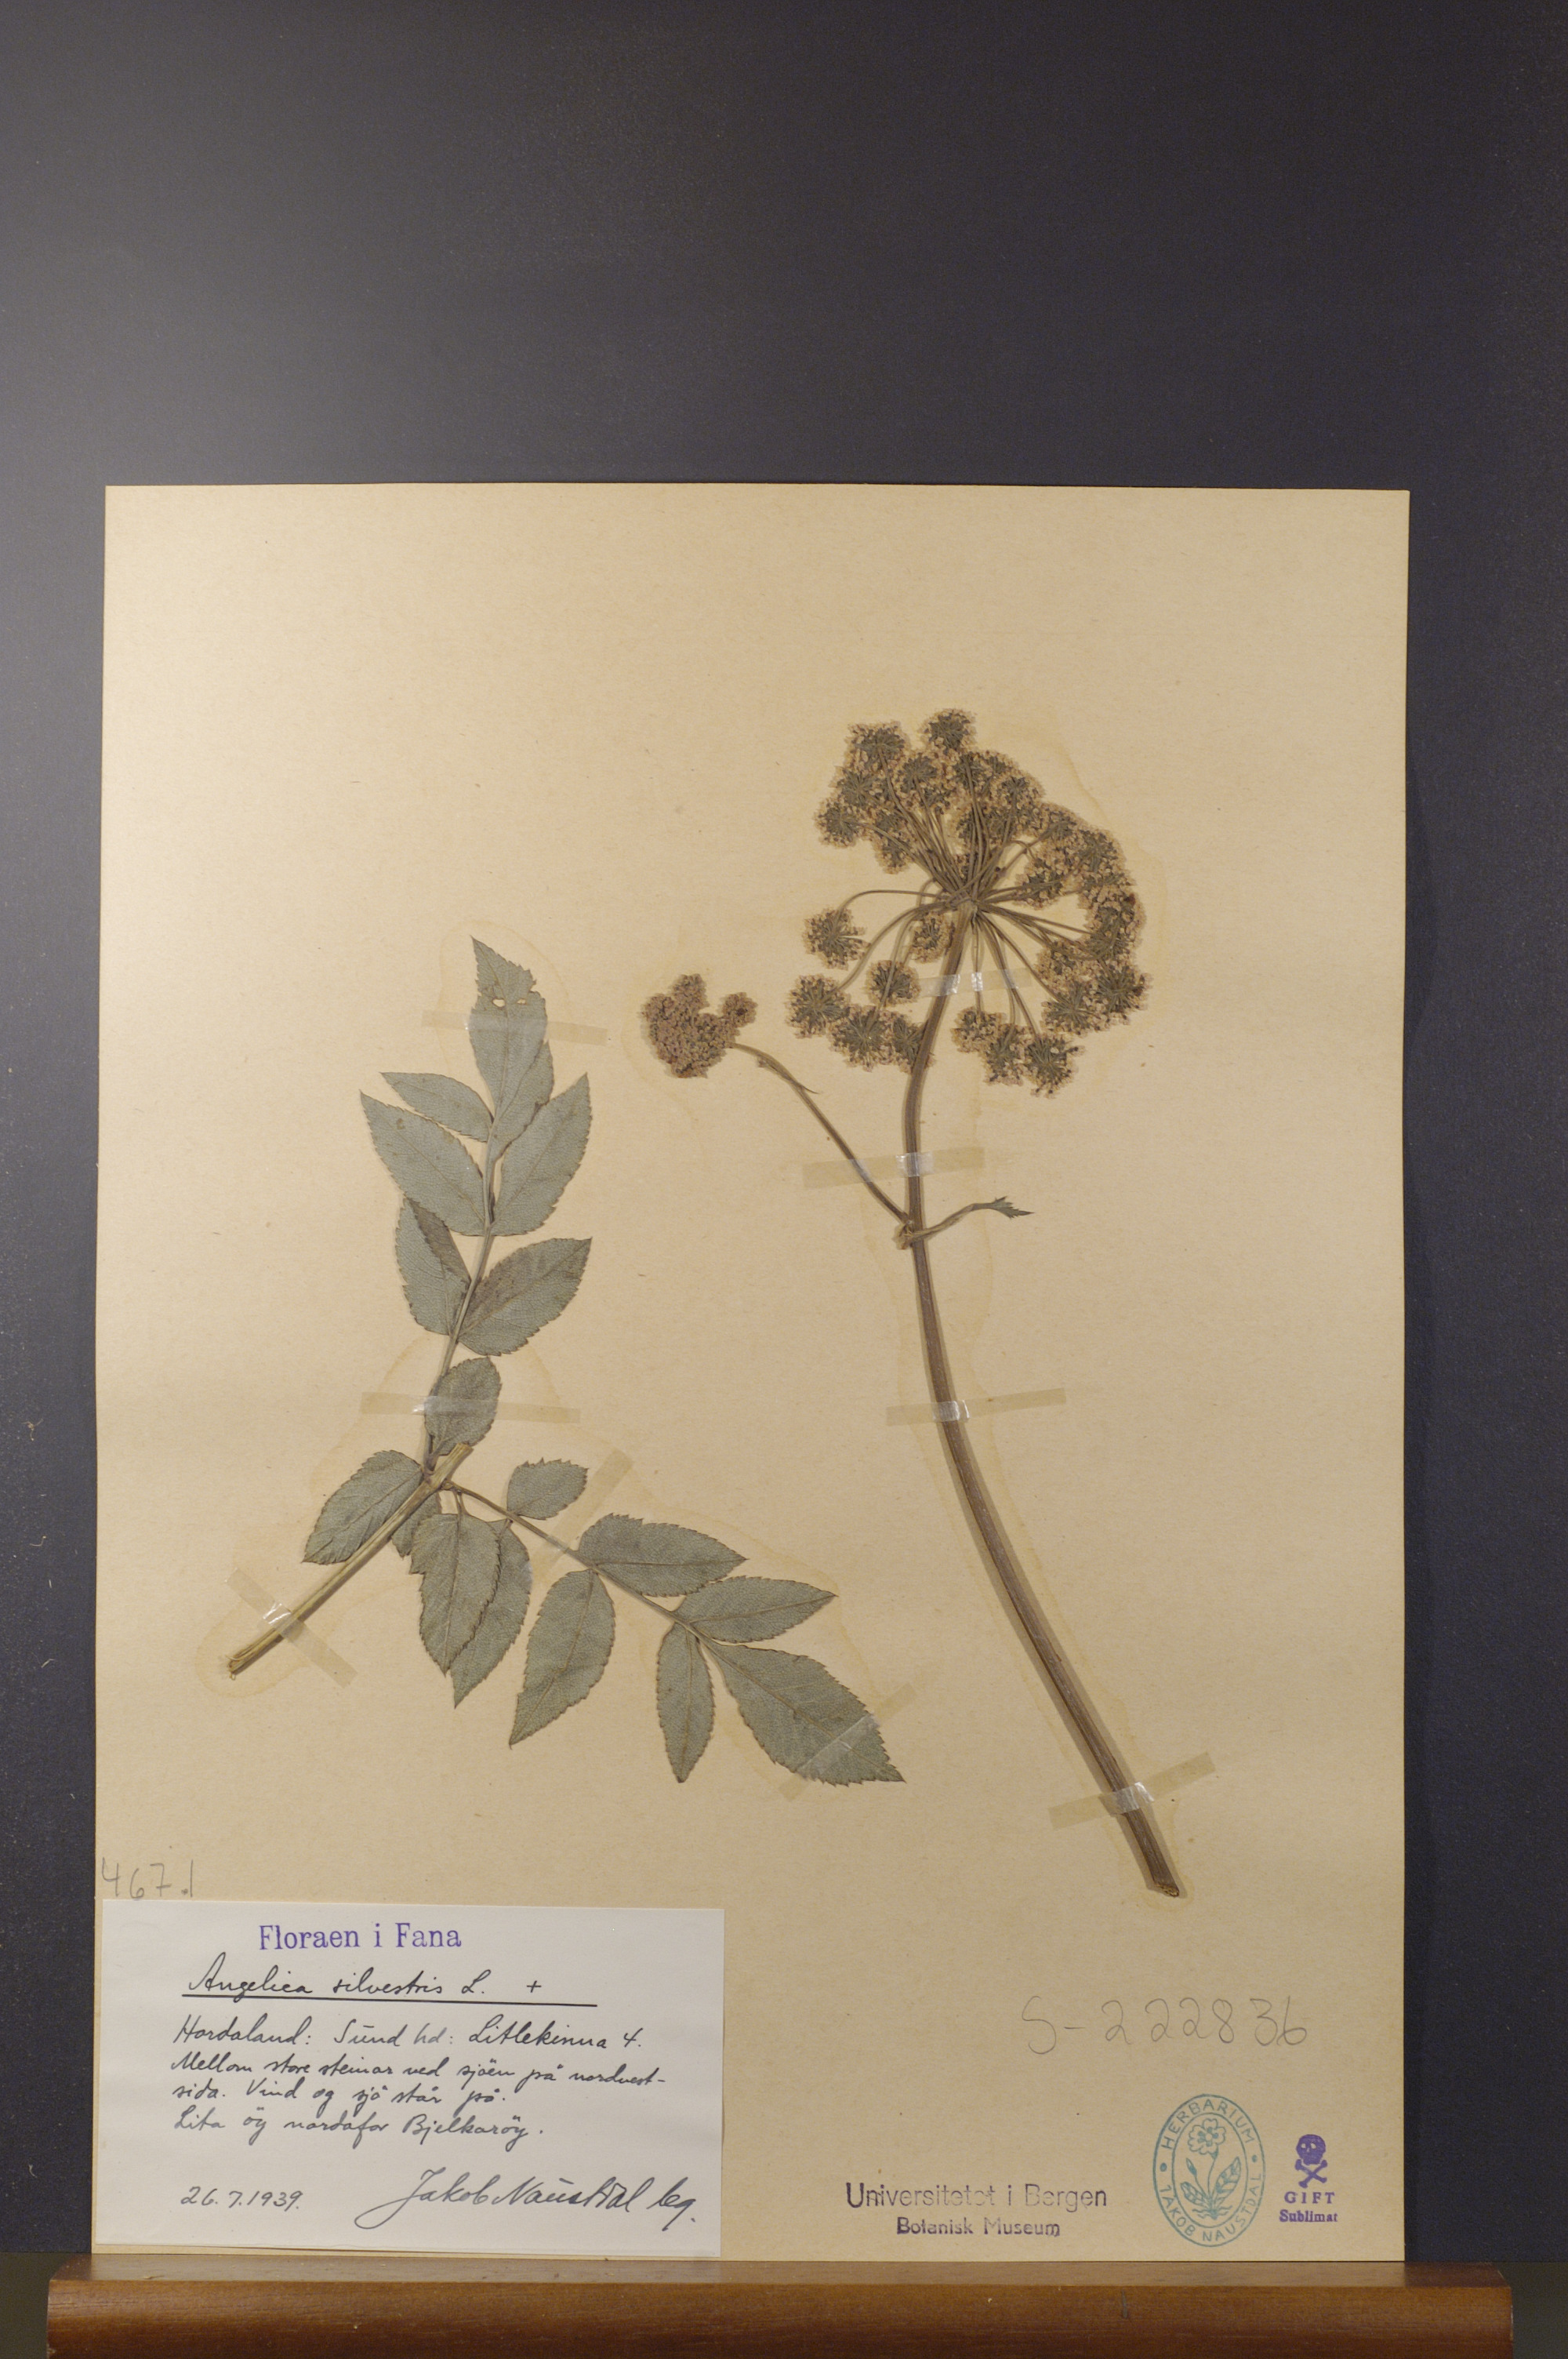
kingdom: Plantae
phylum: Tracheophyta
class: Magnoliopsida
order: Apiales
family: Apiaceae
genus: Angelica
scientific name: Angelica sylvestris
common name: Wild angelica
